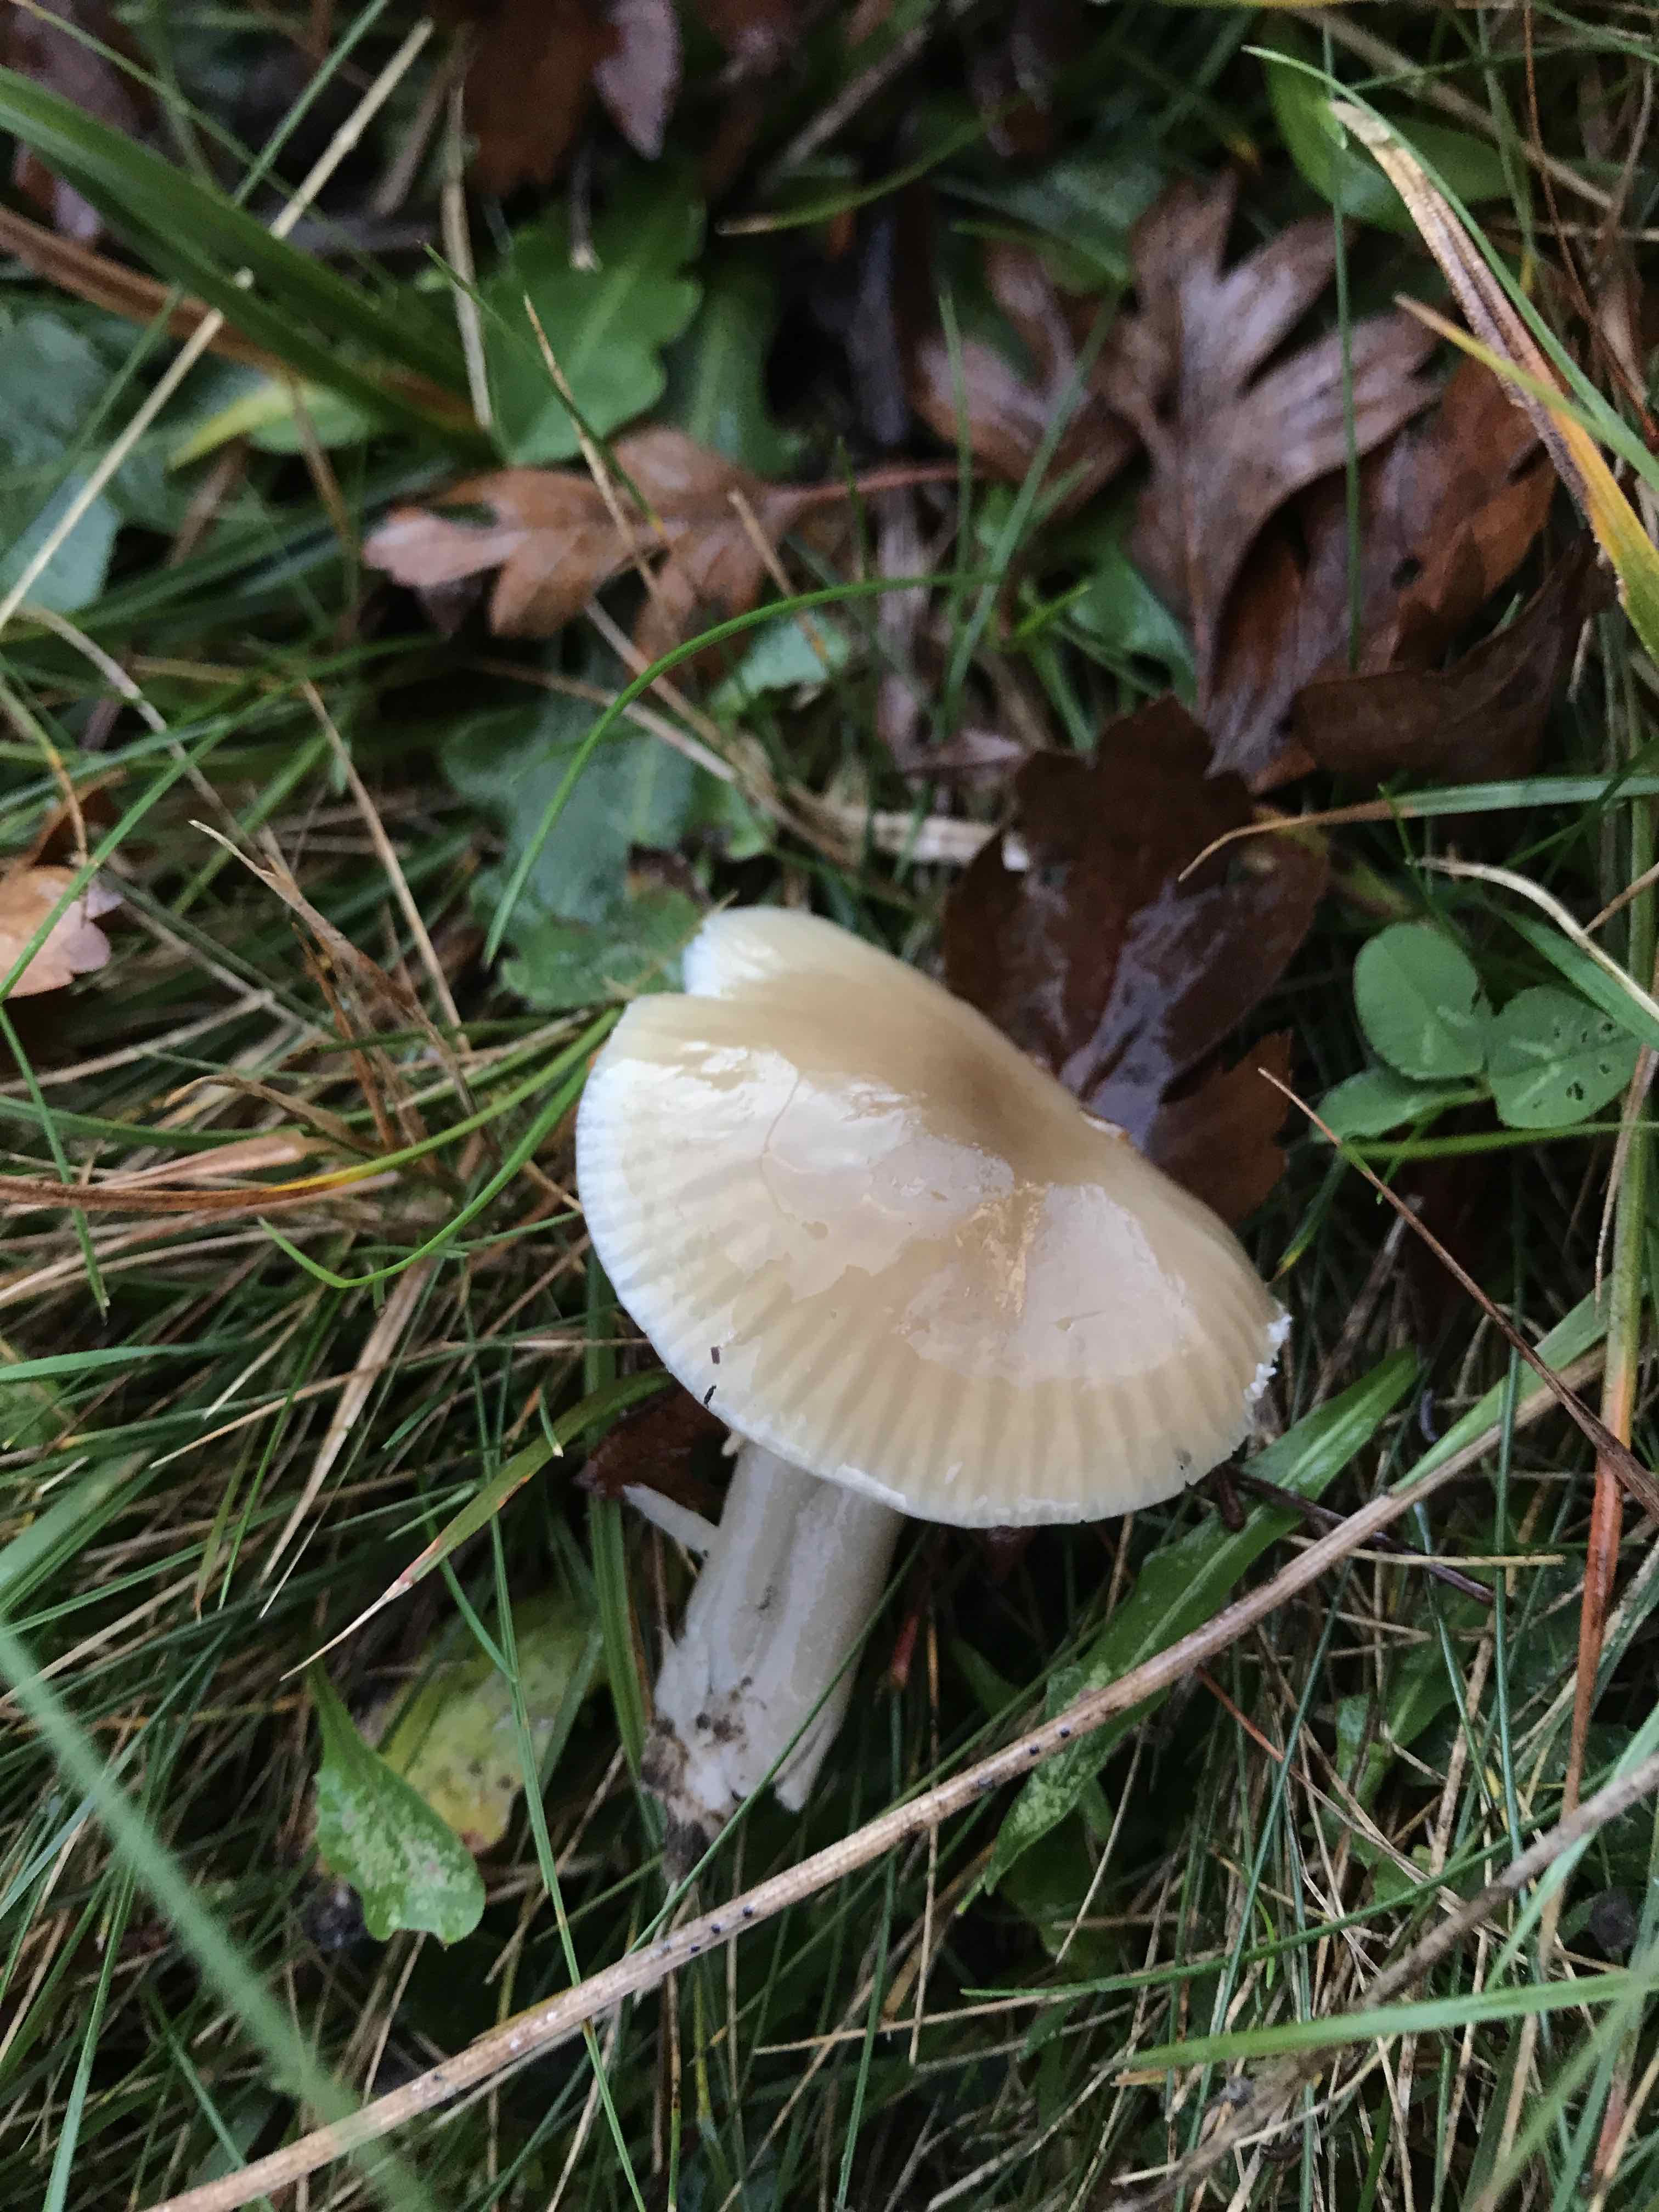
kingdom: Fungi
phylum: Basidiomycota
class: Agaricomycetes
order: Agaricales
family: Hygrophoraceae
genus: Gliophorus
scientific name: Gliophorus irrigatus
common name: slimet vokshat
